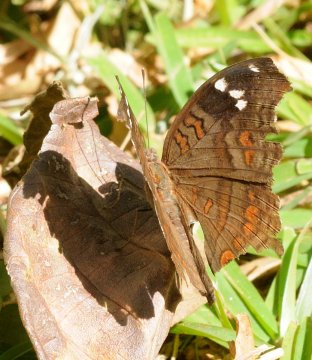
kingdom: Animalia
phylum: Arthropoda
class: Insecta
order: Lepidoptera
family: Nymphalidae
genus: Junonia
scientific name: Junonia natalica
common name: Natal Pansy
